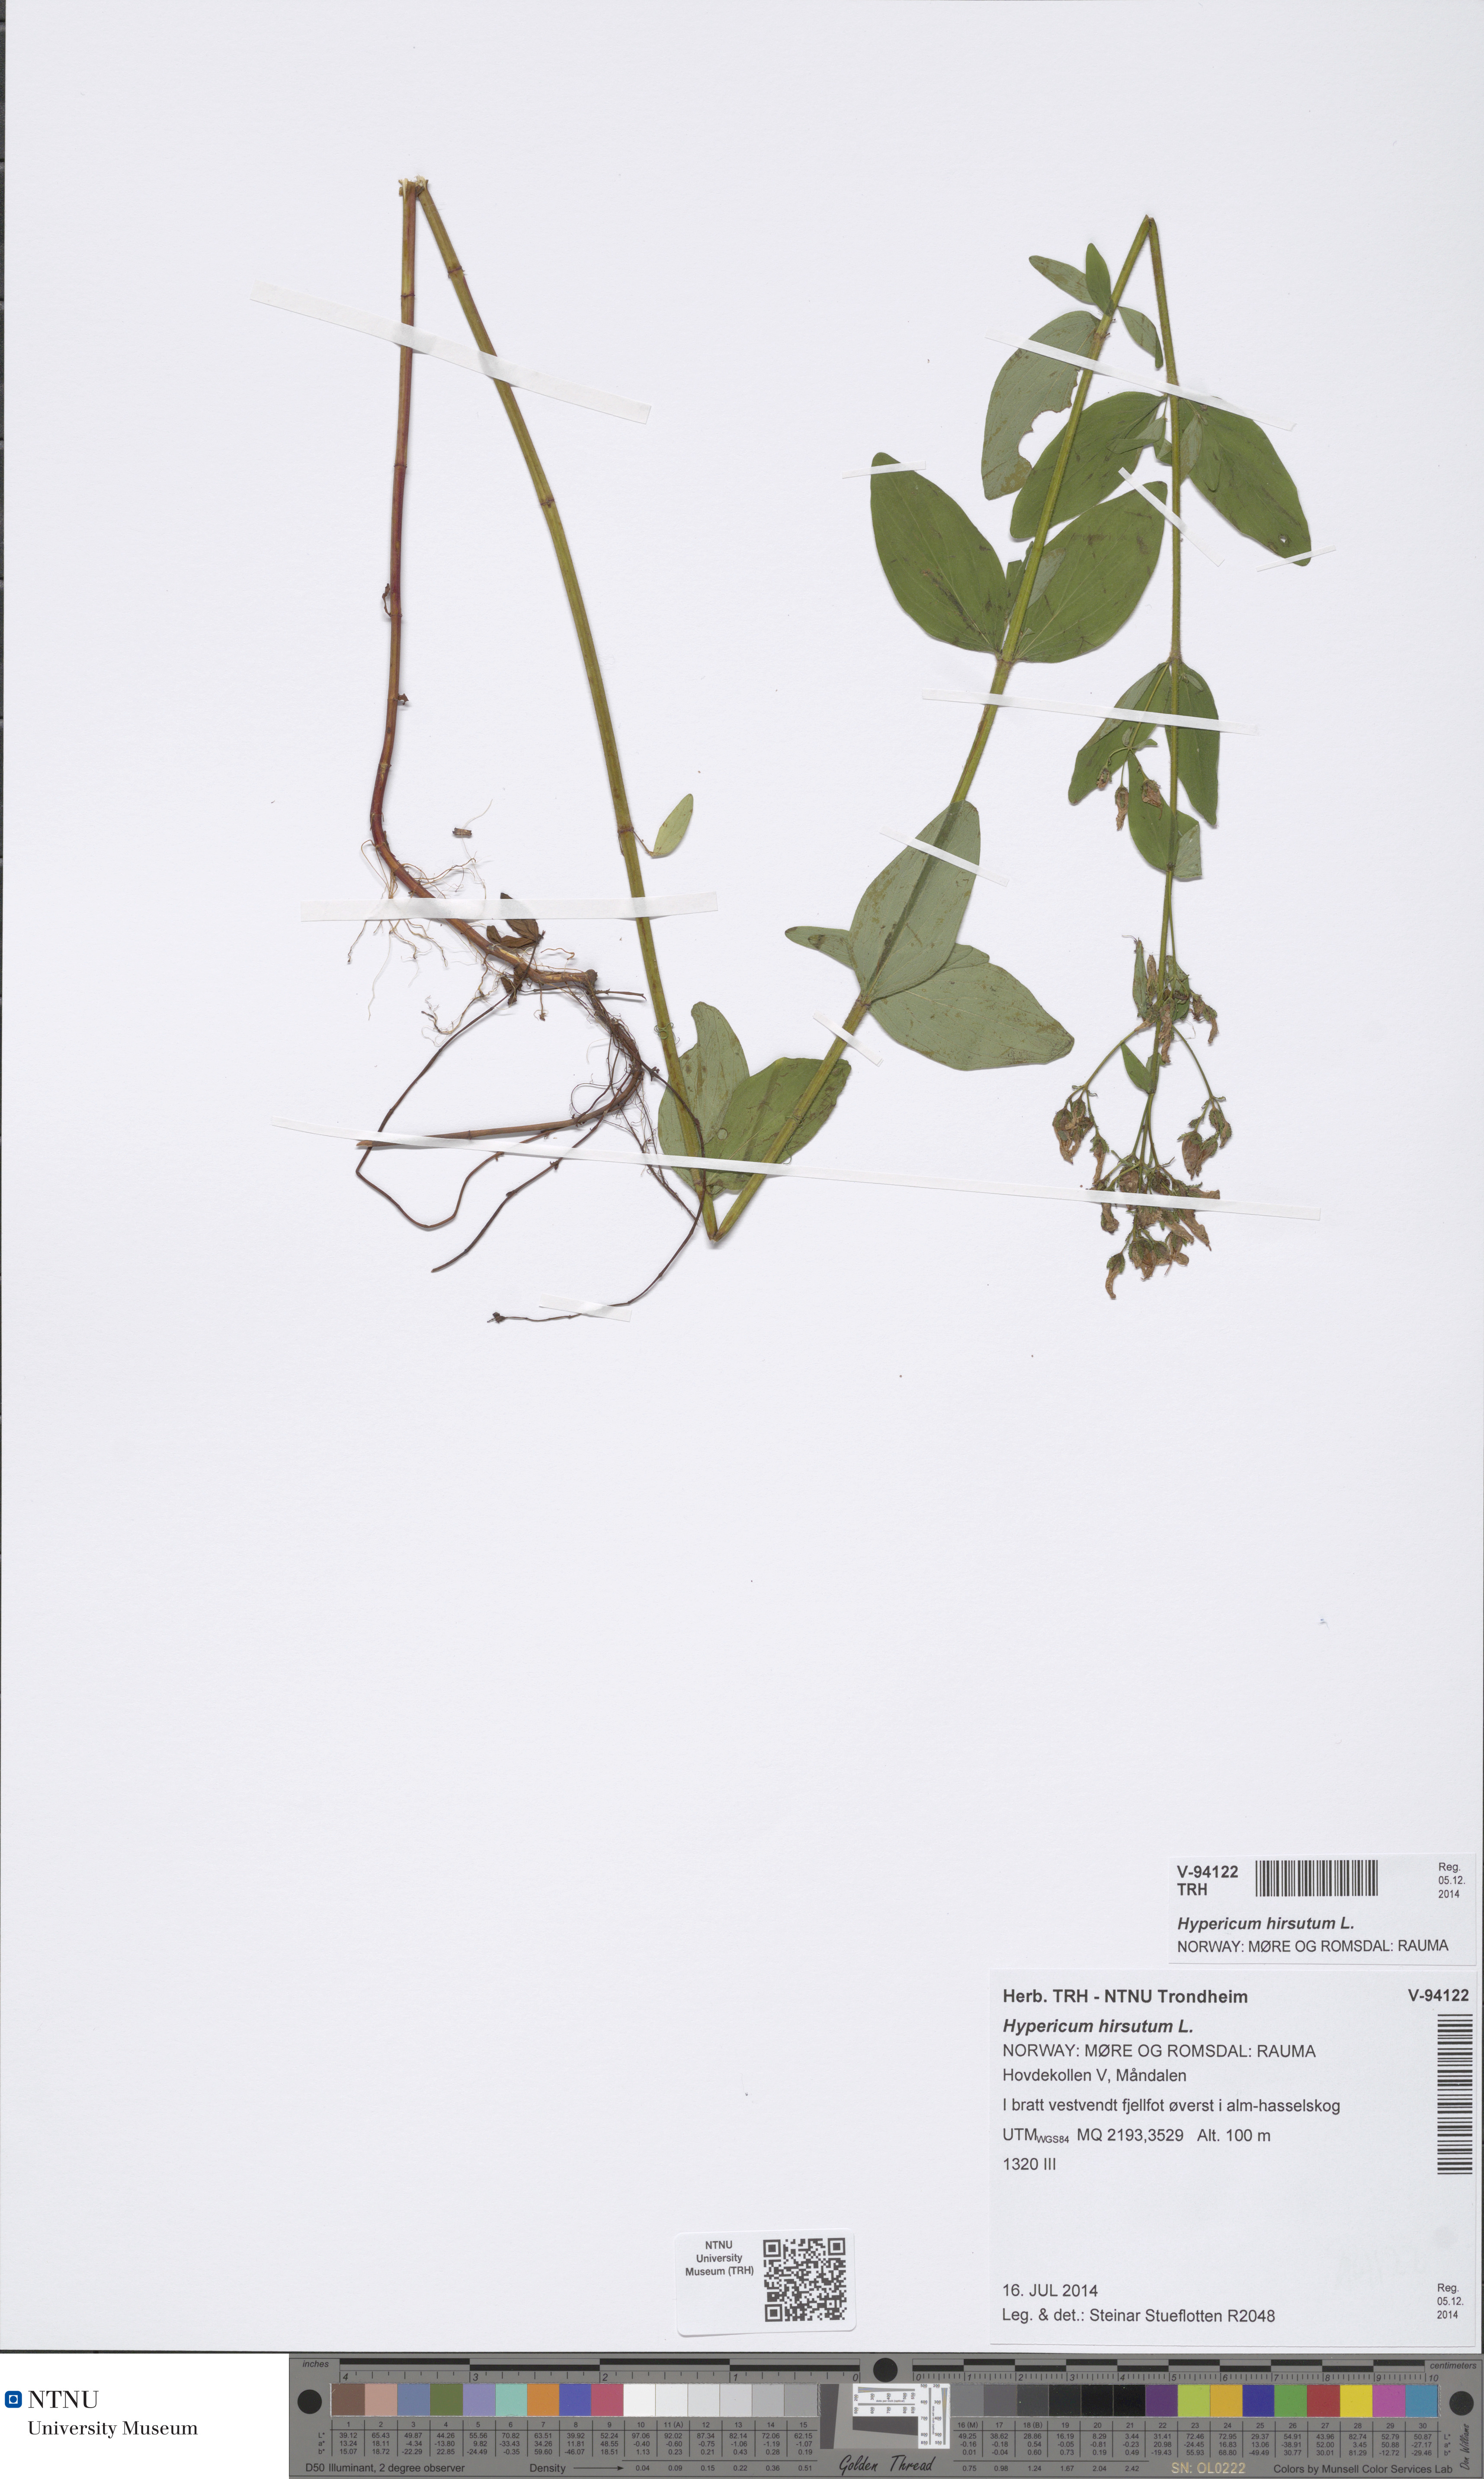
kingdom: Plantae
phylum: Tracheophyta
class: Magnoliopsida
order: Malpighiales
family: Hypericaceae
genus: Hypericum
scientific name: Hypericum hirsutum
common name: Hairy st. john's-wort
